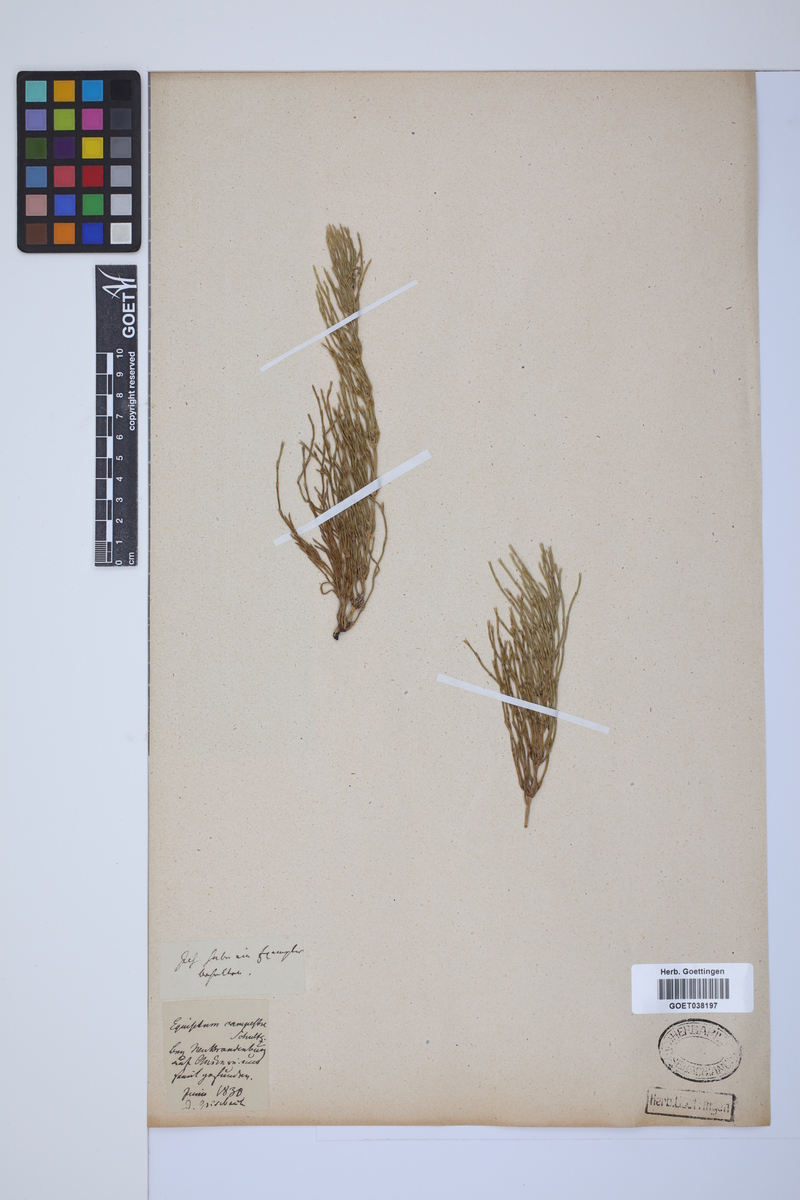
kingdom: Plantae
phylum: Tracheophyta
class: Polypodiopsida
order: Equisetales
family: Equisetaceae
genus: Equisetum
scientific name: Equisetum arvense
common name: Field horsetail
